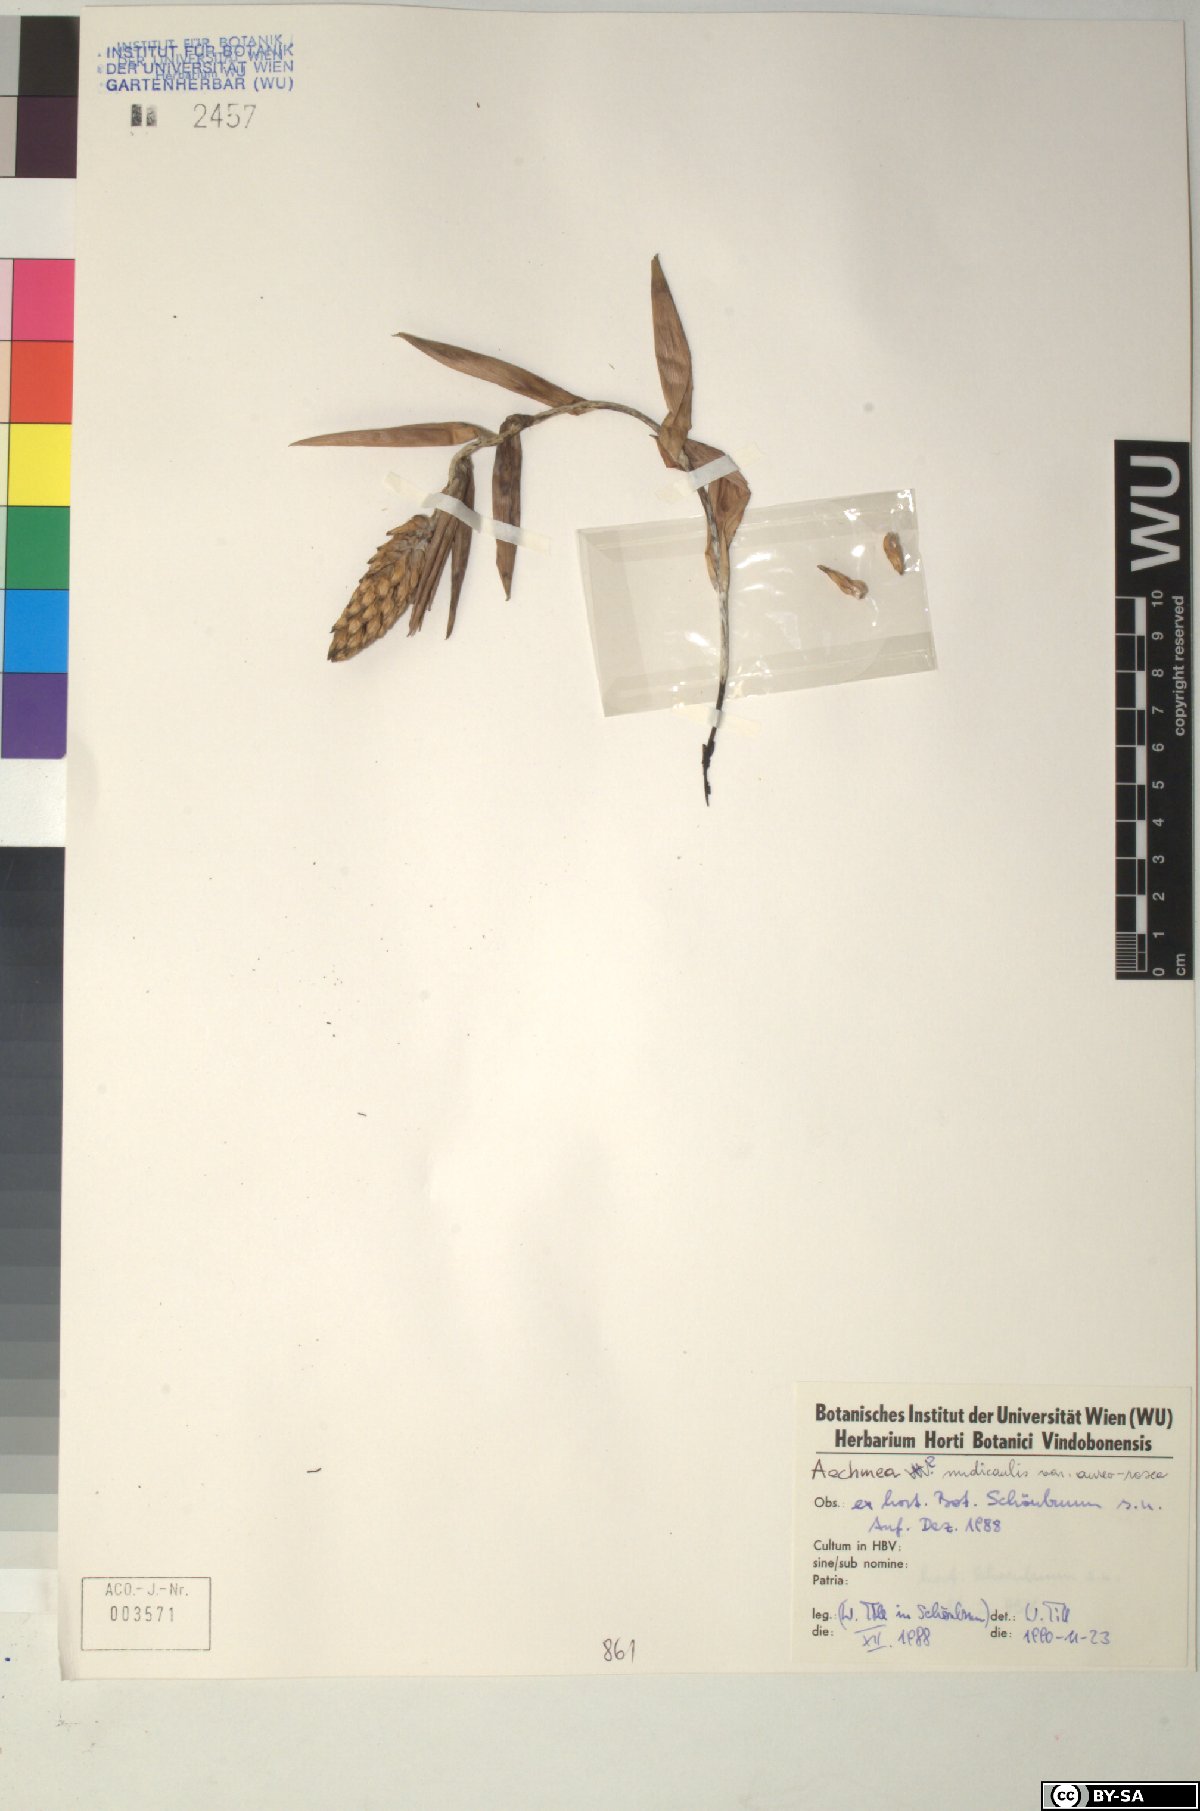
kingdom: Plantae
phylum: Tracheophyta
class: Liliopsida
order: Poales
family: Bromeliaceae
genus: Aechmea
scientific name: Aechmea nudicaulis
